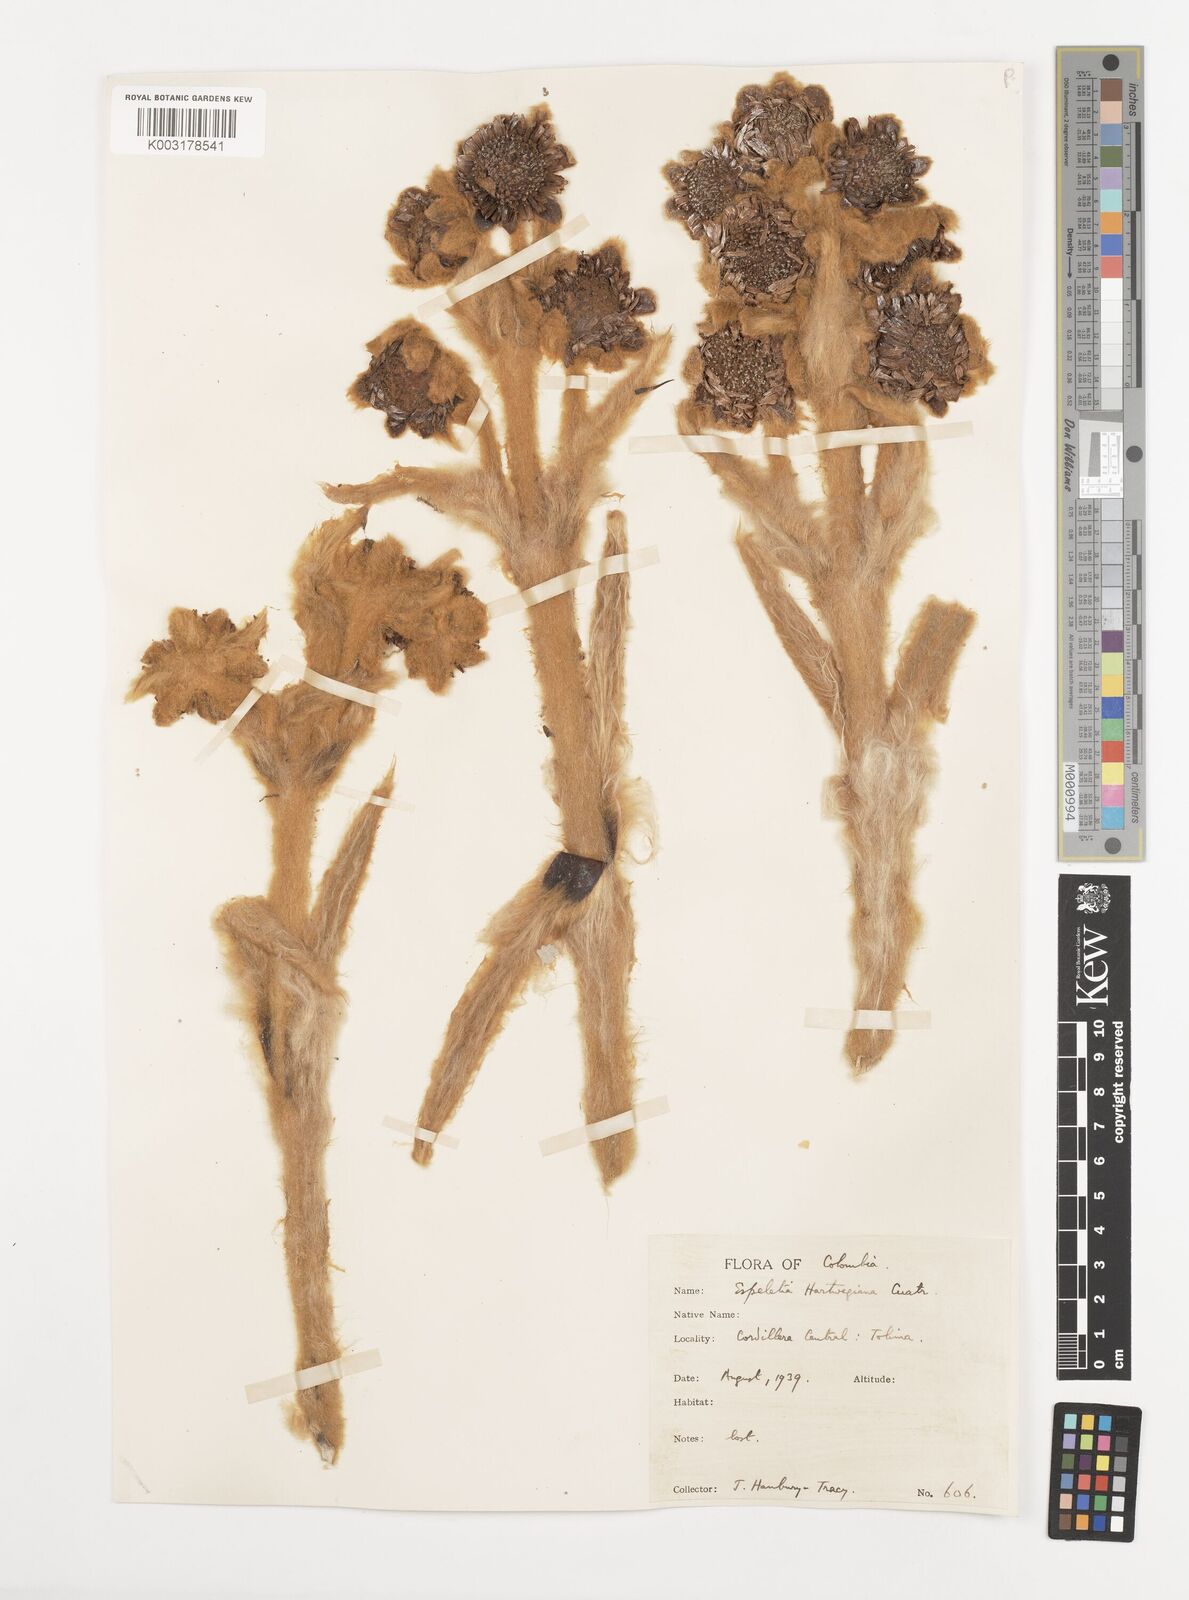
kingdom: Plantae
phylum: Tracheophyta
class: Magnoliopsida
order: Asterales
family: Asteraceae
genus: Espeletia
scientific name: Espeletia hartwegiana
